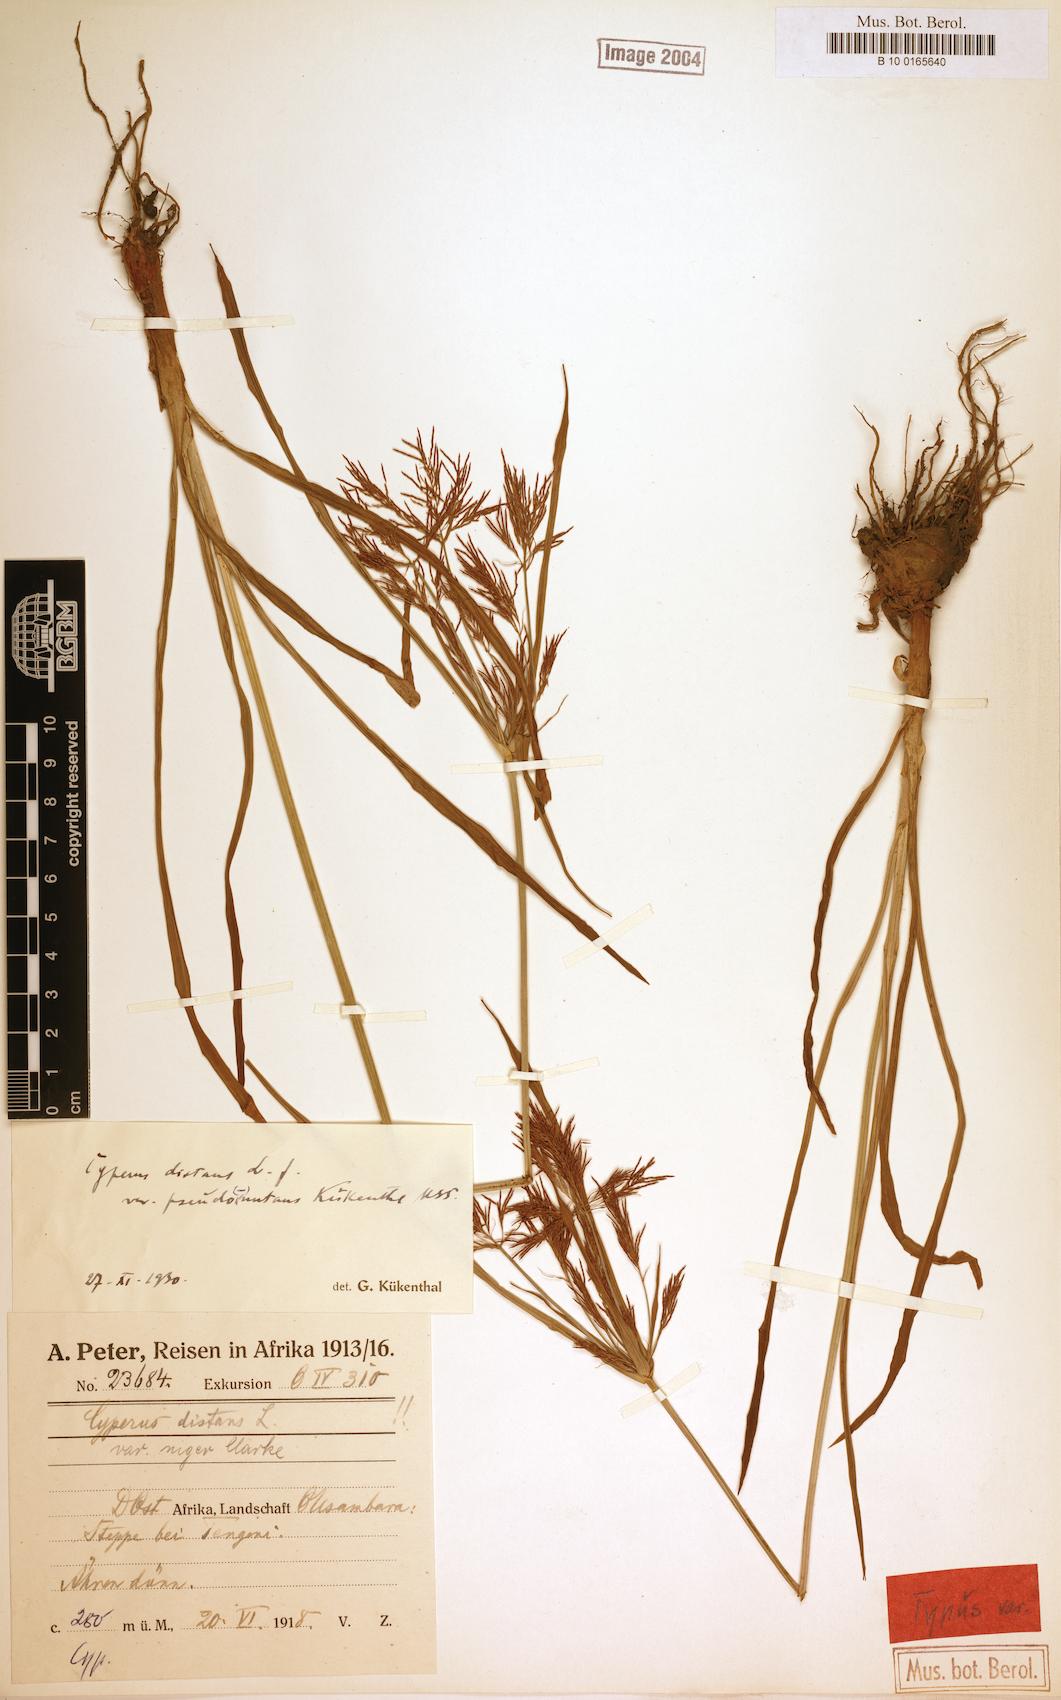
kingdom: Plantae
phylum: Tracheophyta
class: Liliopsida
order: Poales
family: Cyperaceae
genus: Cyperus
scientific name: Cyperus distans
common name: Slender cyperus
